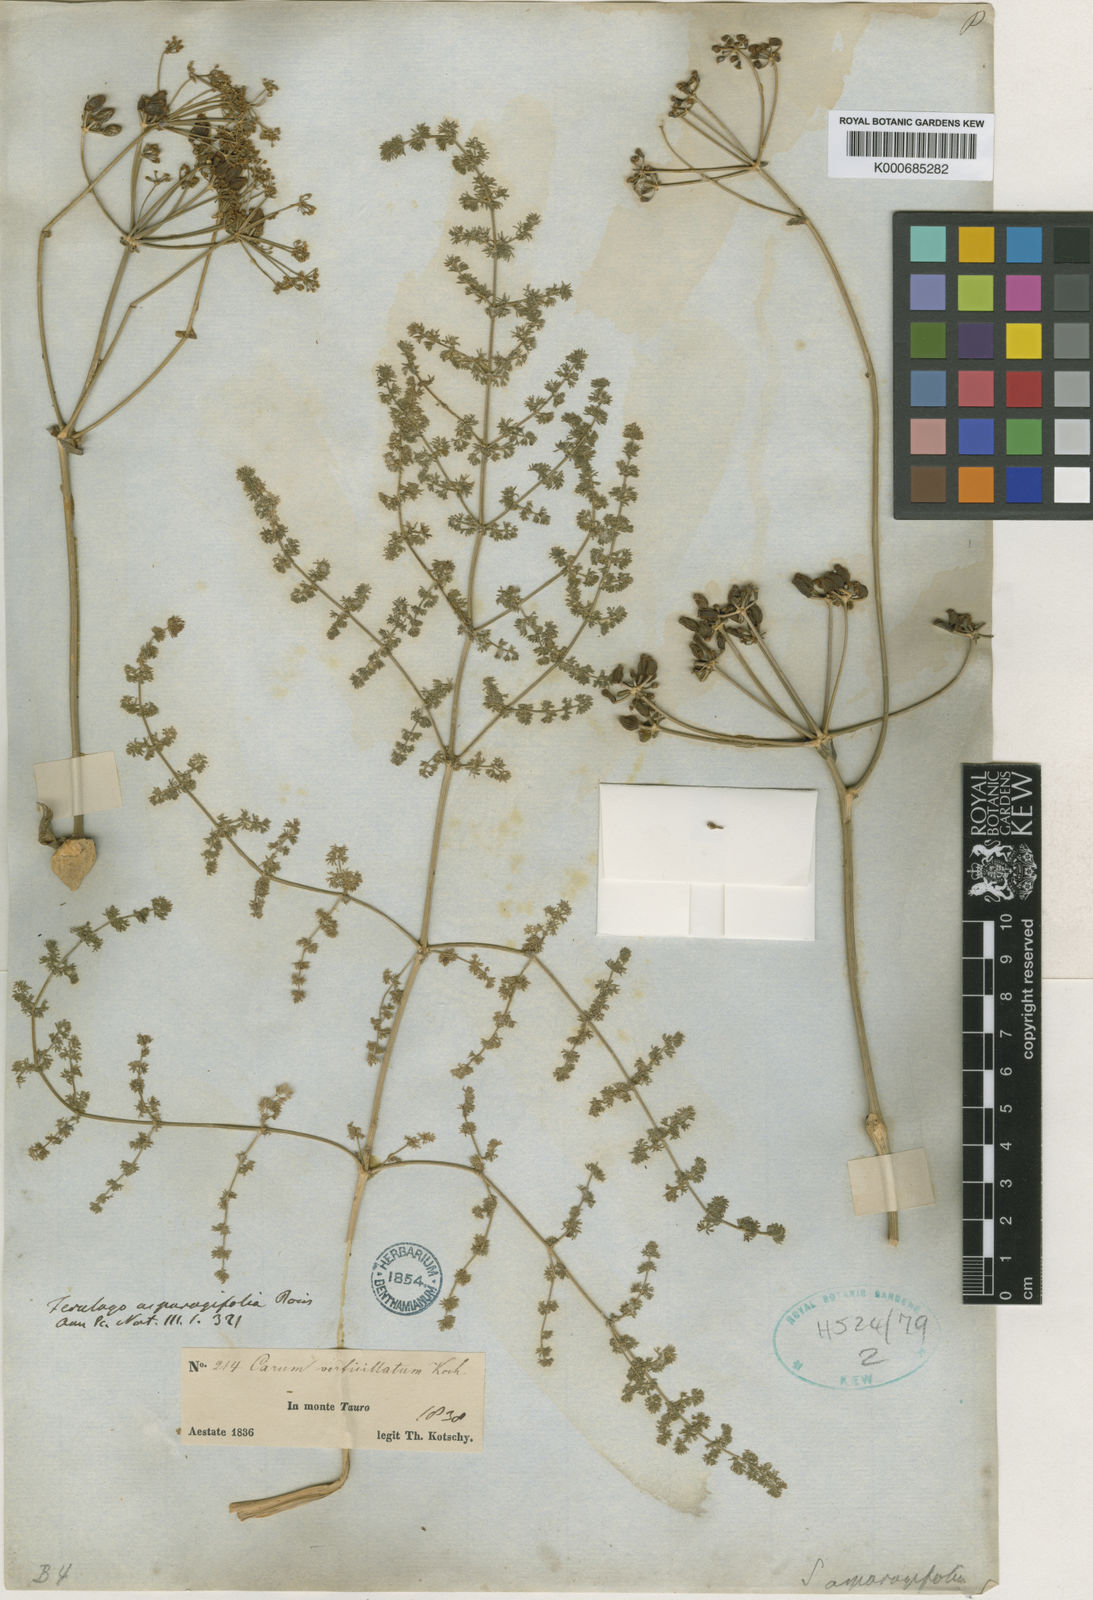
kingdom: Plantae
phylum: Tracheophyta
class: Magnoliopsida
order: Apiales
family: Apiaceae
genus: Ferulago
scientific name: Ferulago asparagifolia
